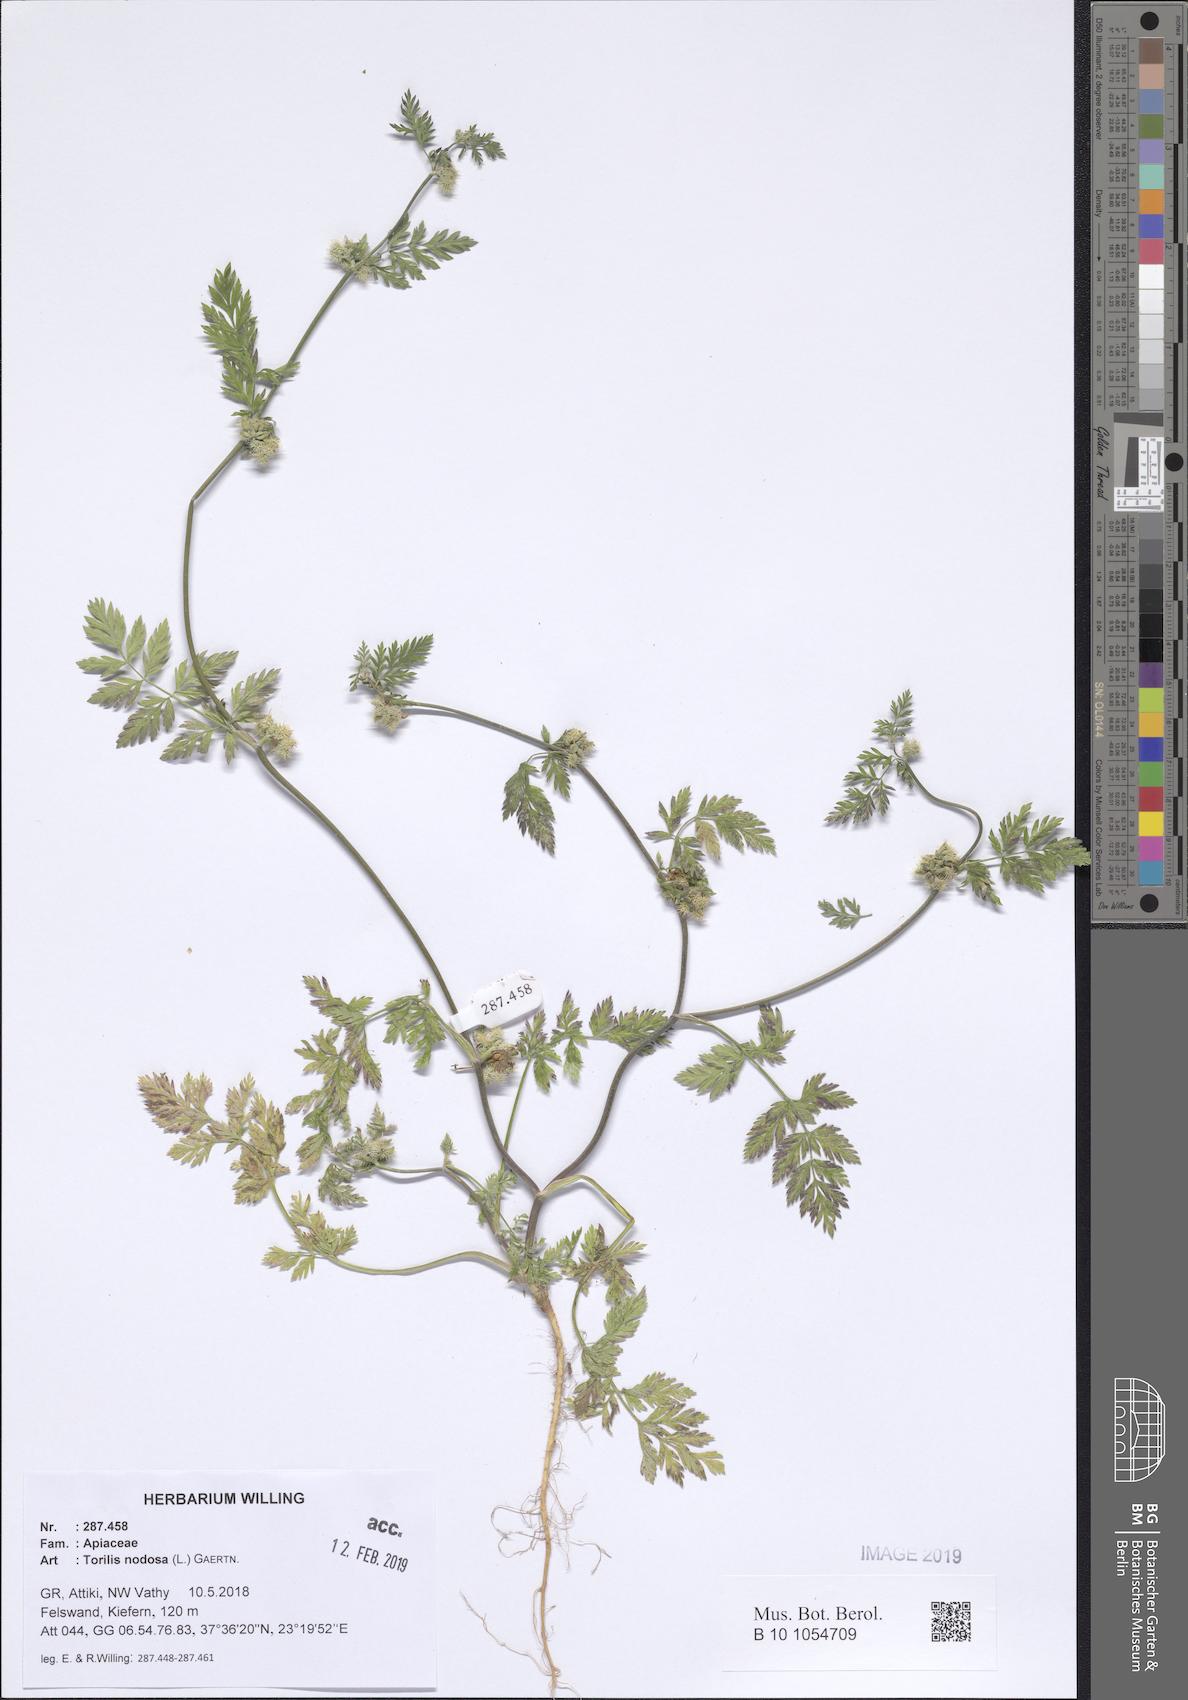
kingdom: Plantae
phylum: Tracheophyta
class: Magnoliopsida
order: Apiales
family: Apiaceae
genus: Torilis
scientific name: Torilis nodosa
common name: Knotted hedge-parsley
